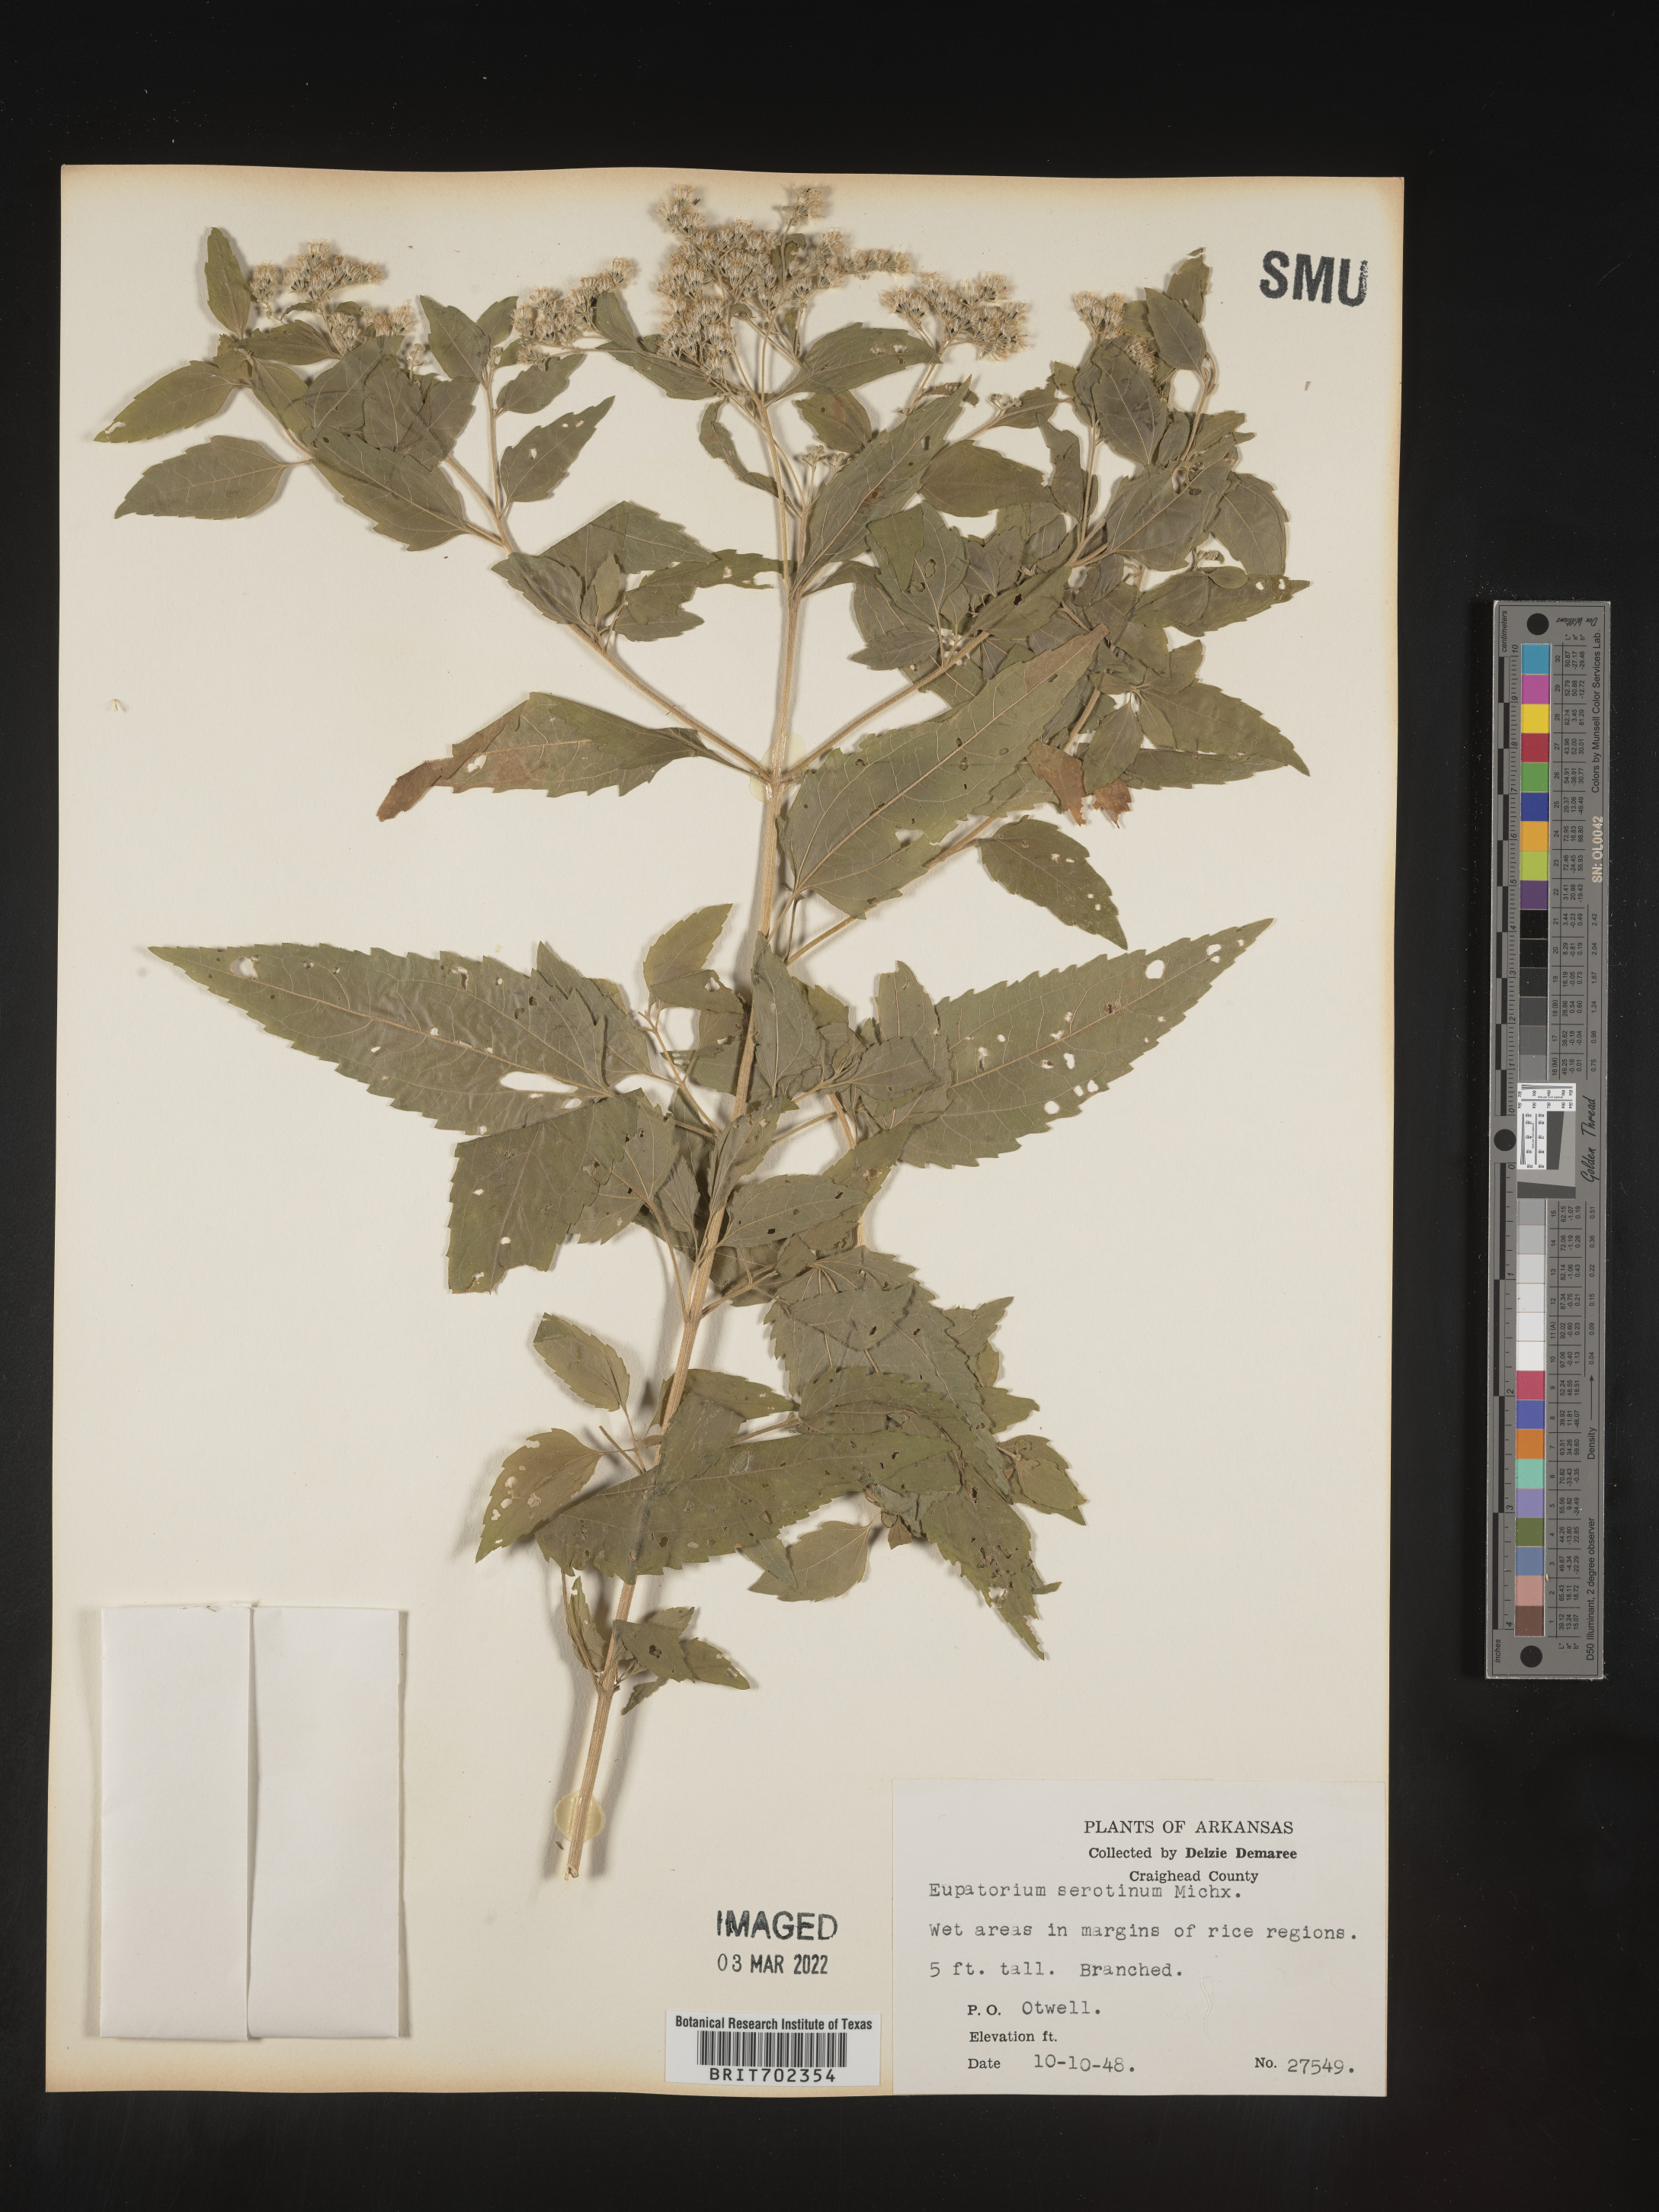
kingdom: Plantae
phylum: Tracheophyta
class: Magnoliopsida
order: Asterales
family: Asteraceae
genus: Eupatorium
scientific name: Eupatorium serotinum
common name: Late boneset
